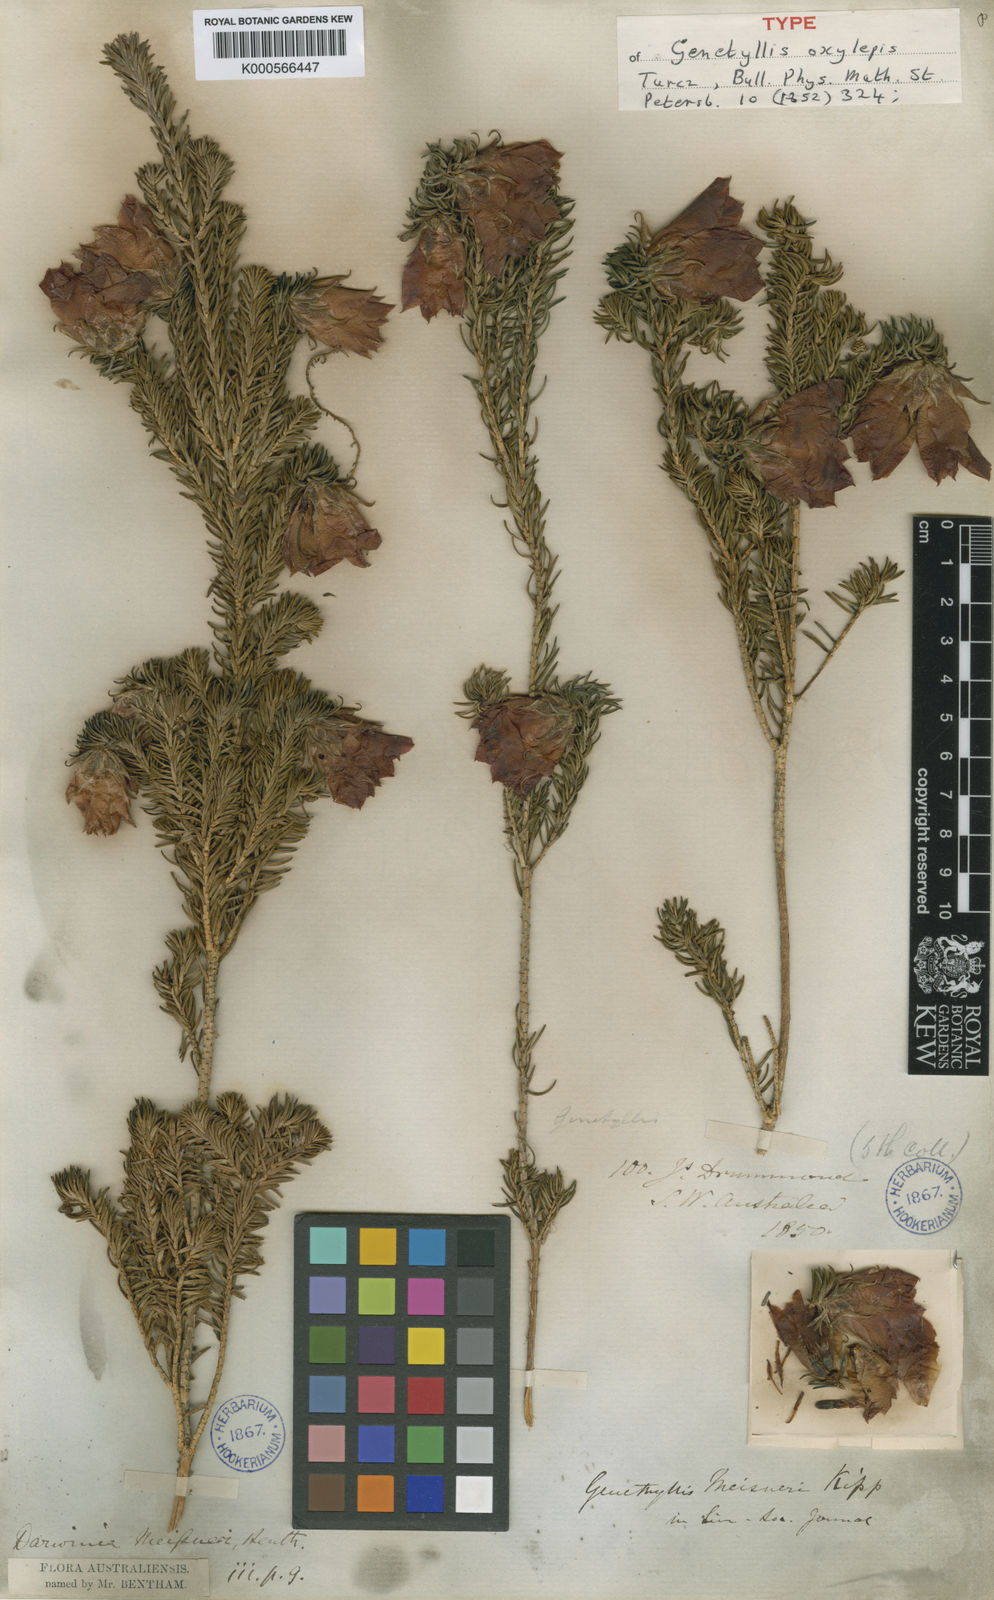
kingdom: Plantae
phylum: Tracheophyta
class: Magnoliopsida
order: Myrtales
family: Myrtaceae
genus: Darwinia
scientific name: Darwinia oxylepis
